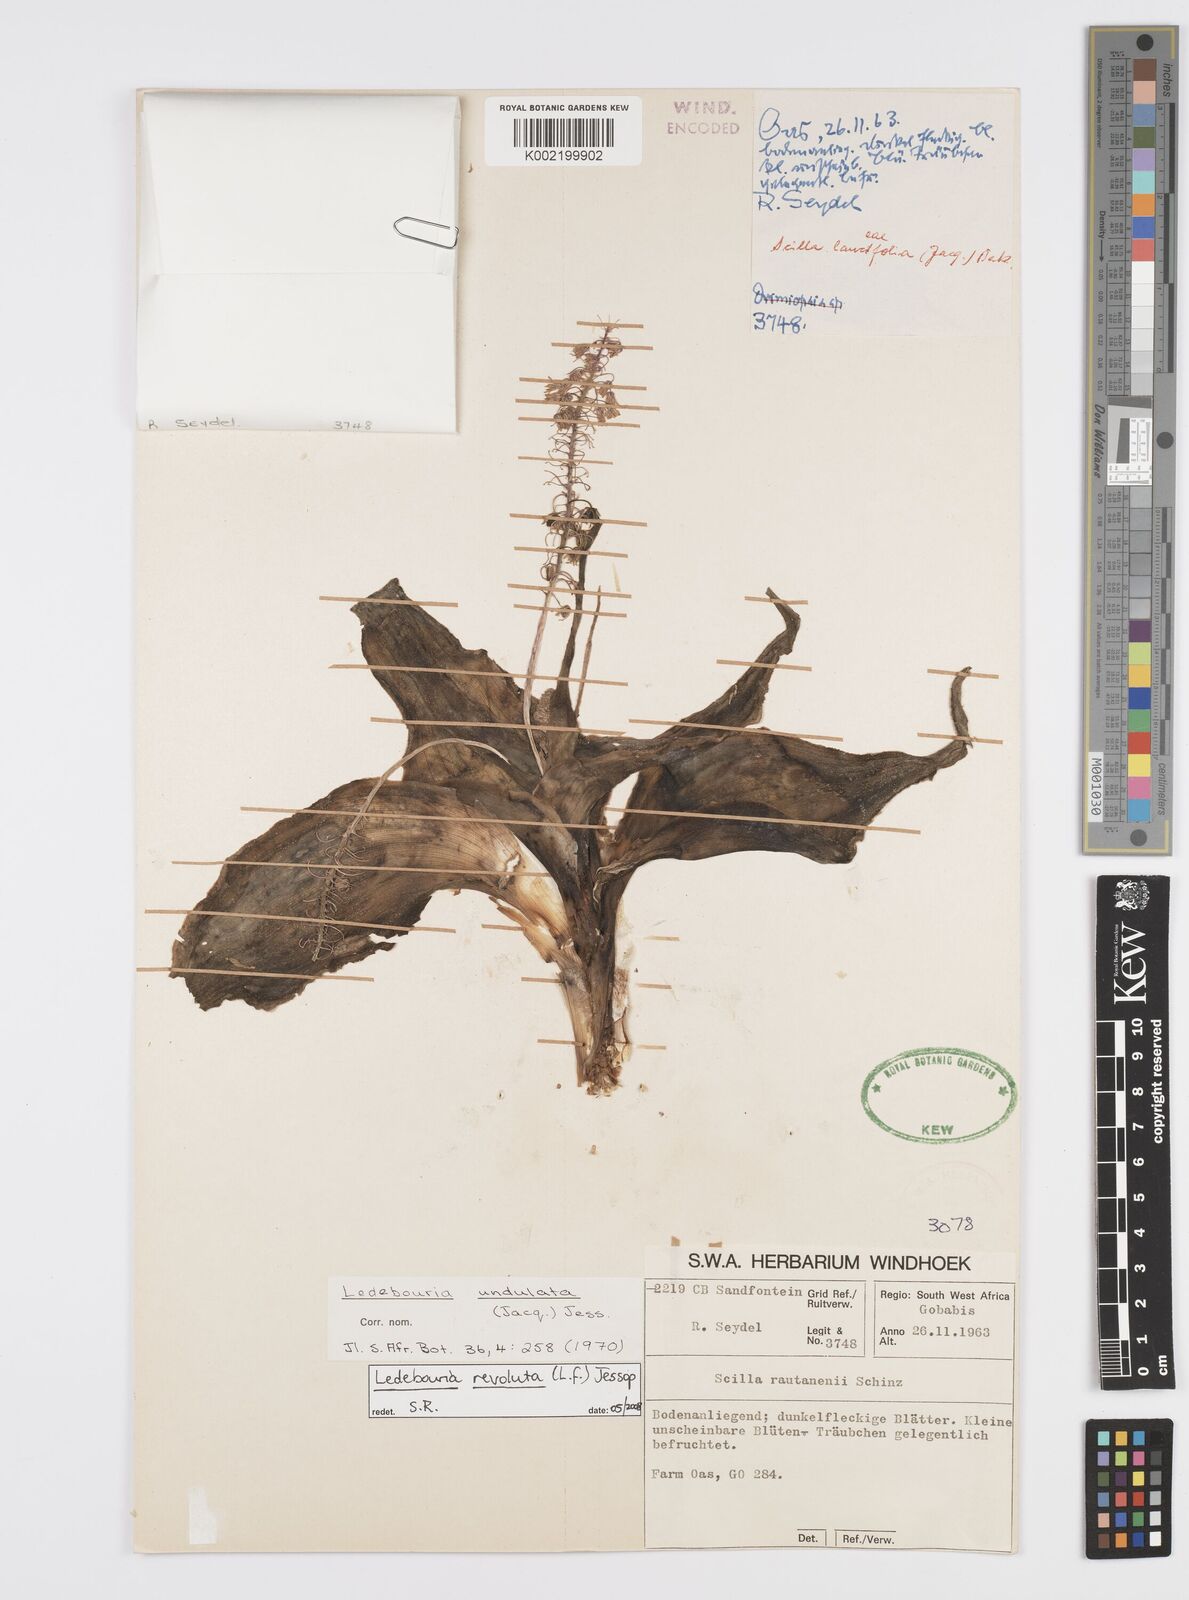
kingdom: Plantae
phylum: Tracheophyta
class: Liliopsida
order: Asparagales
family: Asparagaceae
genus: Ledebouria
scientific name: Ledebouria revoluta
